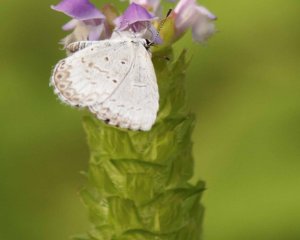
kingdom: Animalia
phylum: Arthropoda
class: Insecta
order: Lepidoptera
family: Lycaenidae
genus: Cyaniris
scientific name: Cyaniris neglecta
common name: Summer Azure
